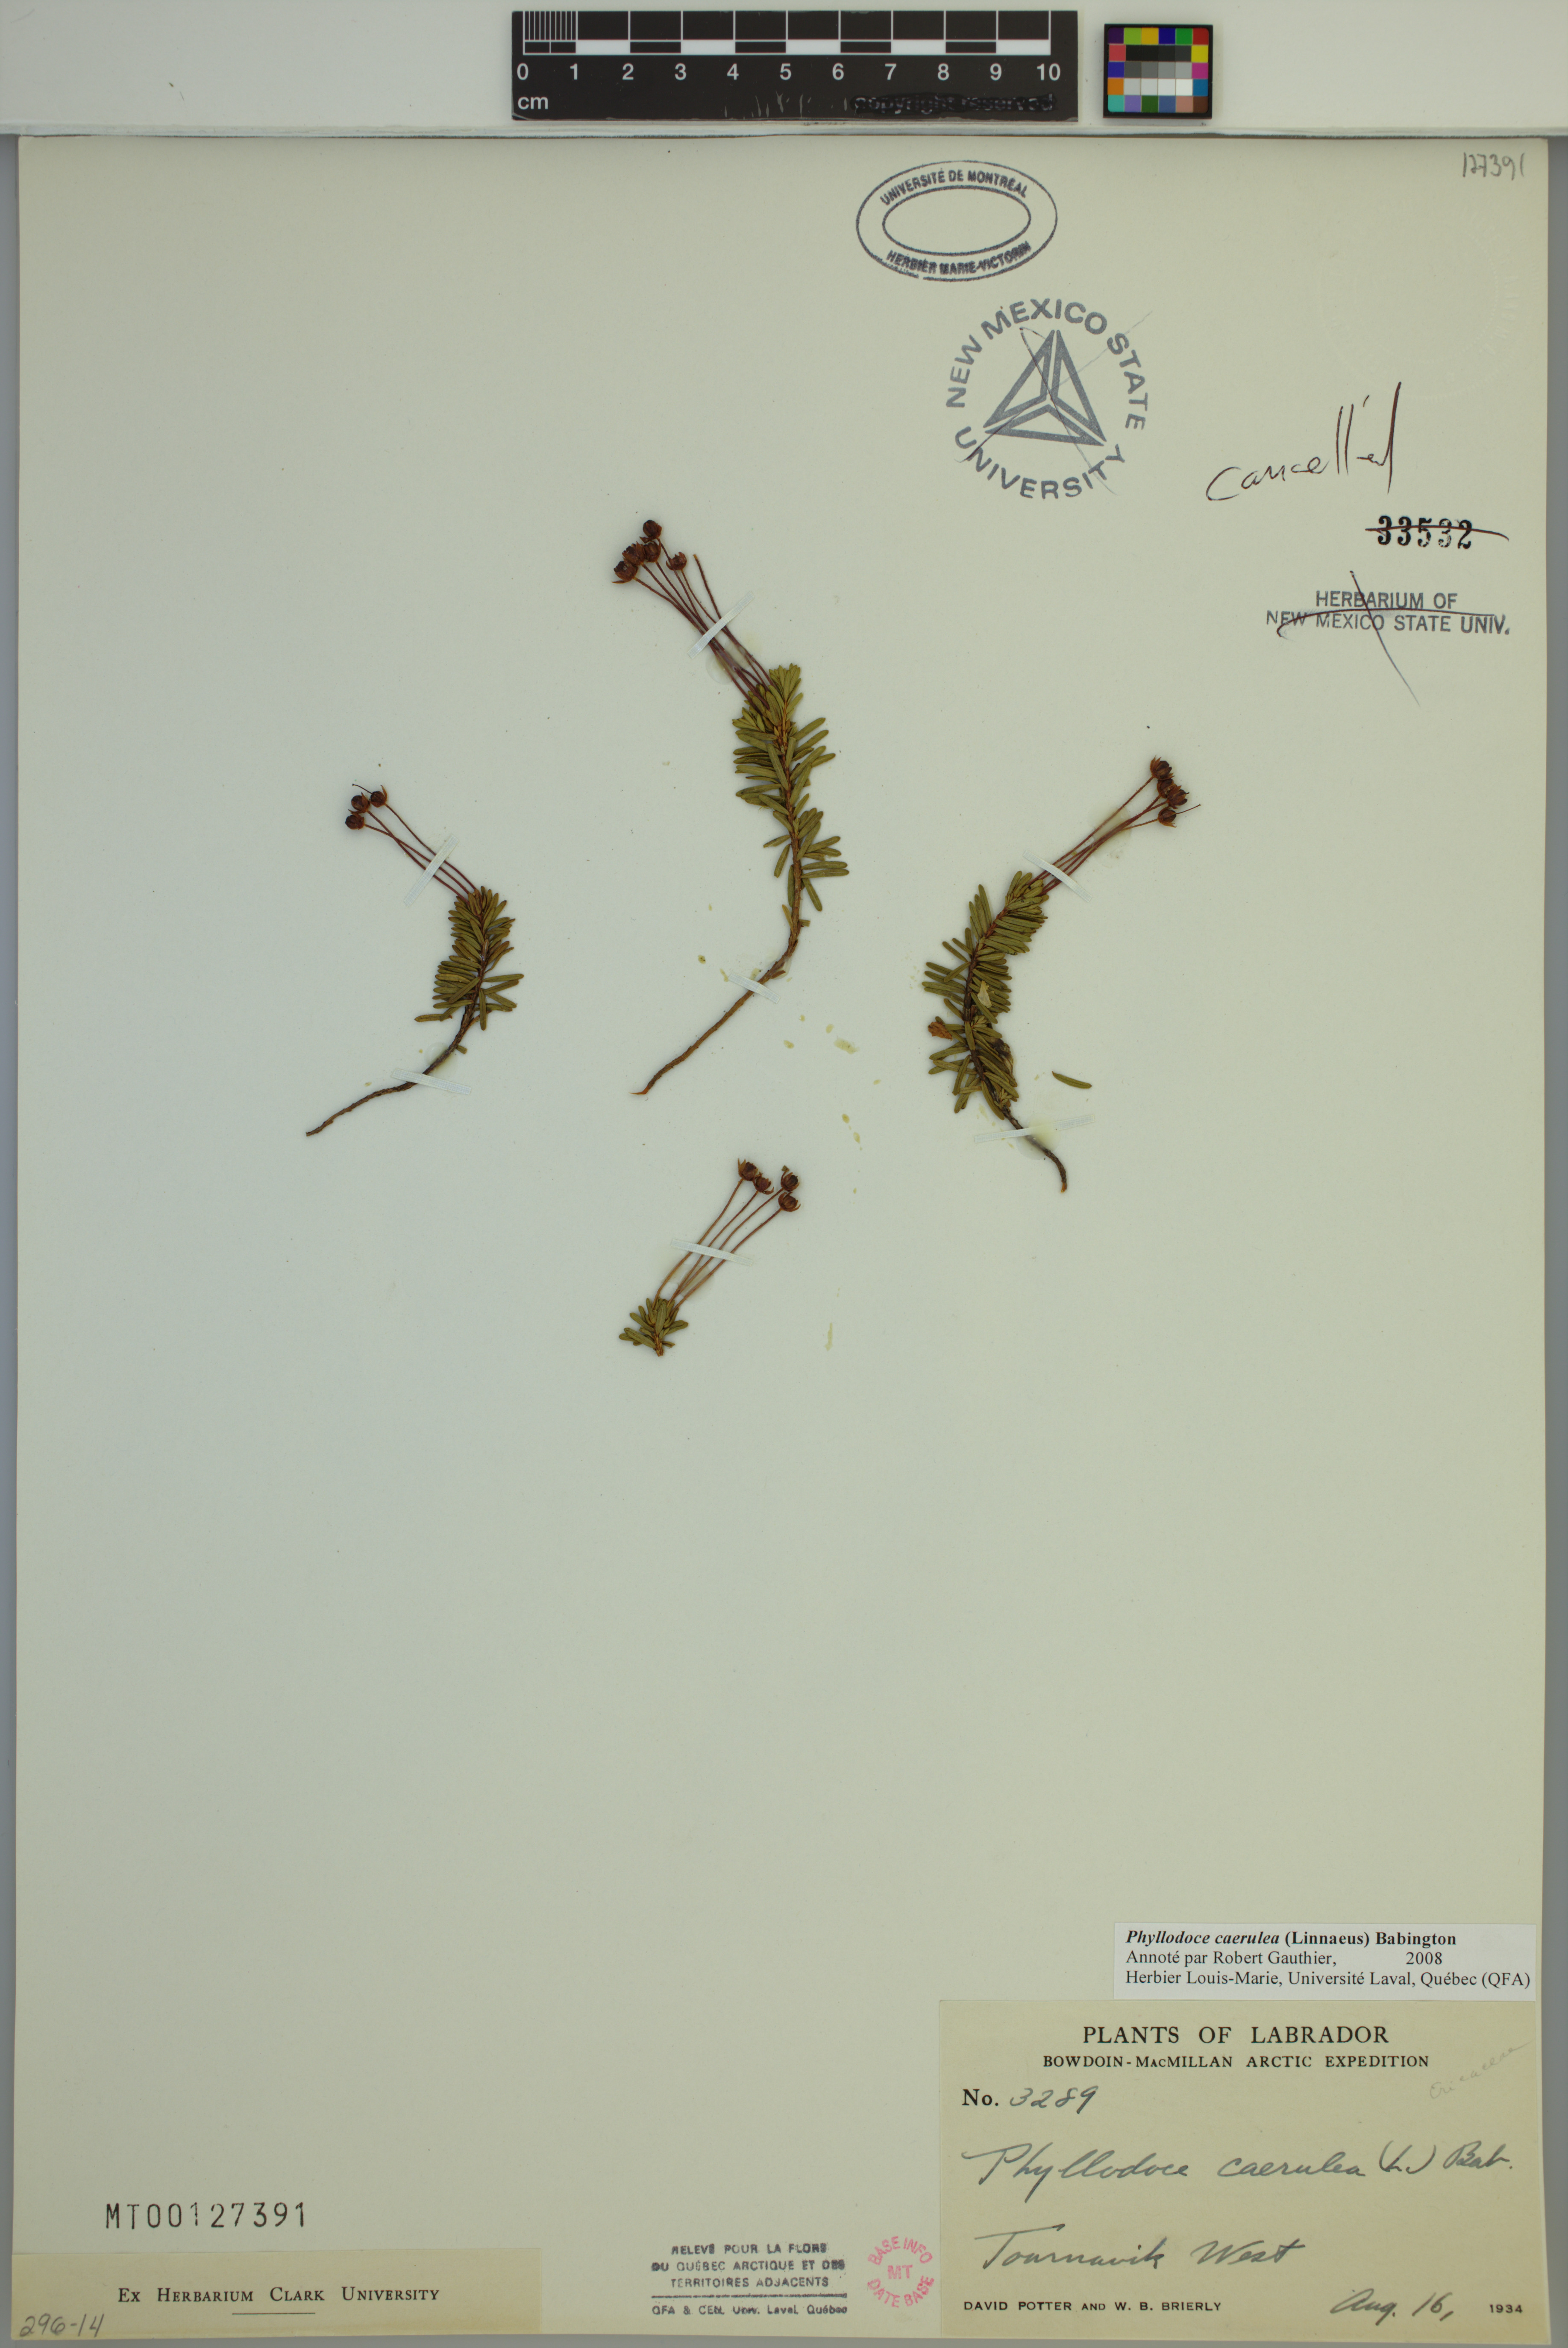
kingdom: Plantae
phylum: Tracheophyta
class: Magnoliopsida
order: Ericales
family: Ericaceae
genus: Phyllodoce
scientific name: Phyllodoce caerulea
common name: Blue heath
